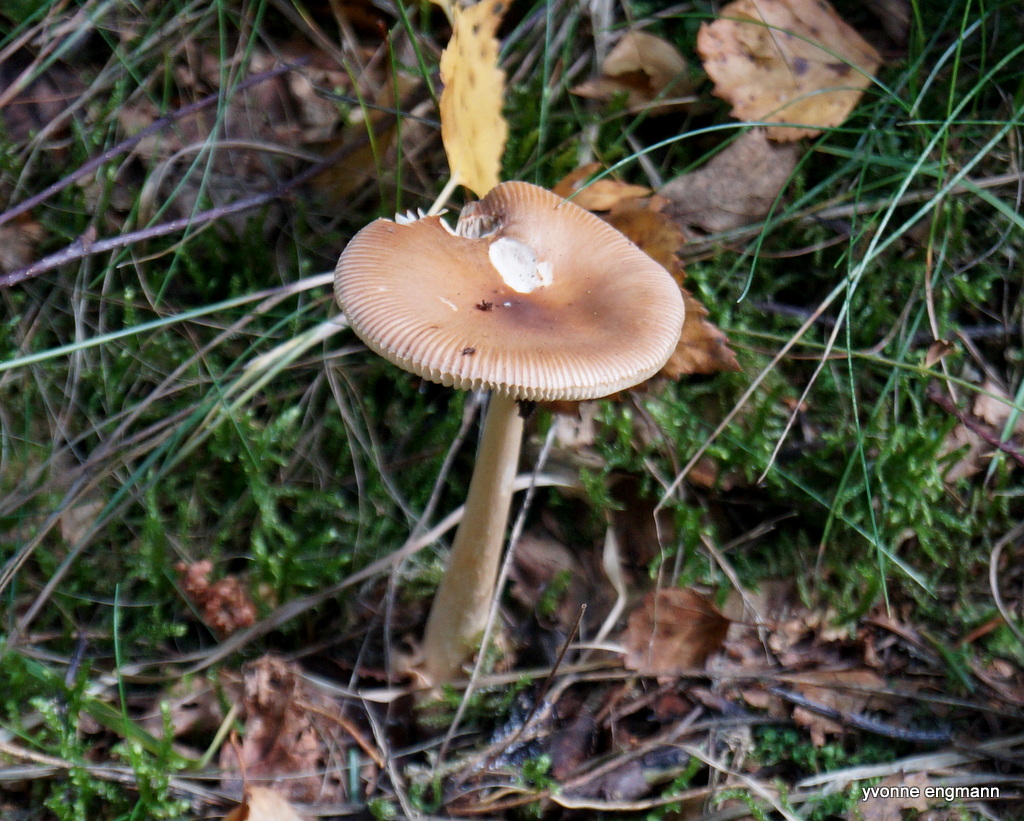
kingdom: Fungi
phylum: Basidiomycota
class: Agaricomycetes
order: Agaricales
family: Amanitaceae
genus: Amanita
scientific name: Amanita fulva
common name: brun kam-fluesvamp
